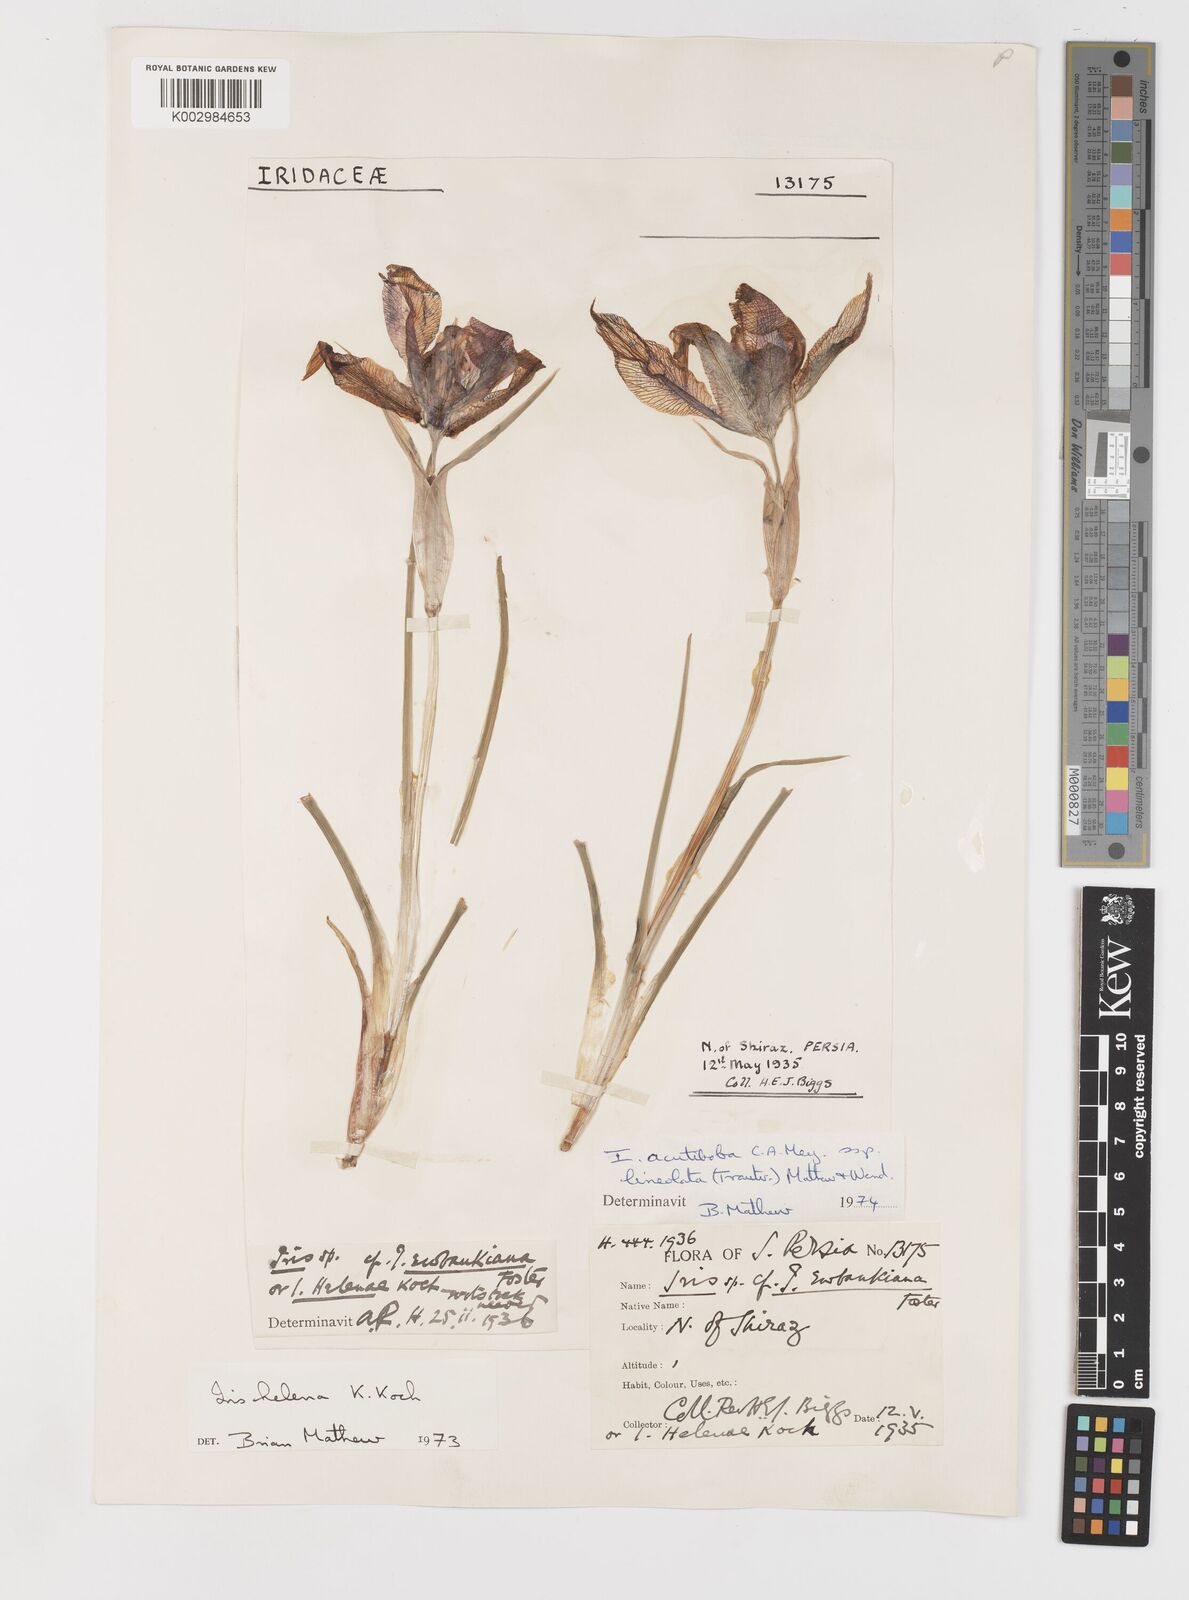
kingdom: Plantae
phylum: Tracheophyta
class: Liliopsida
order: Asparagales
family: Iridaceae
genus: Iris
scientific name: Iris acutiloba
